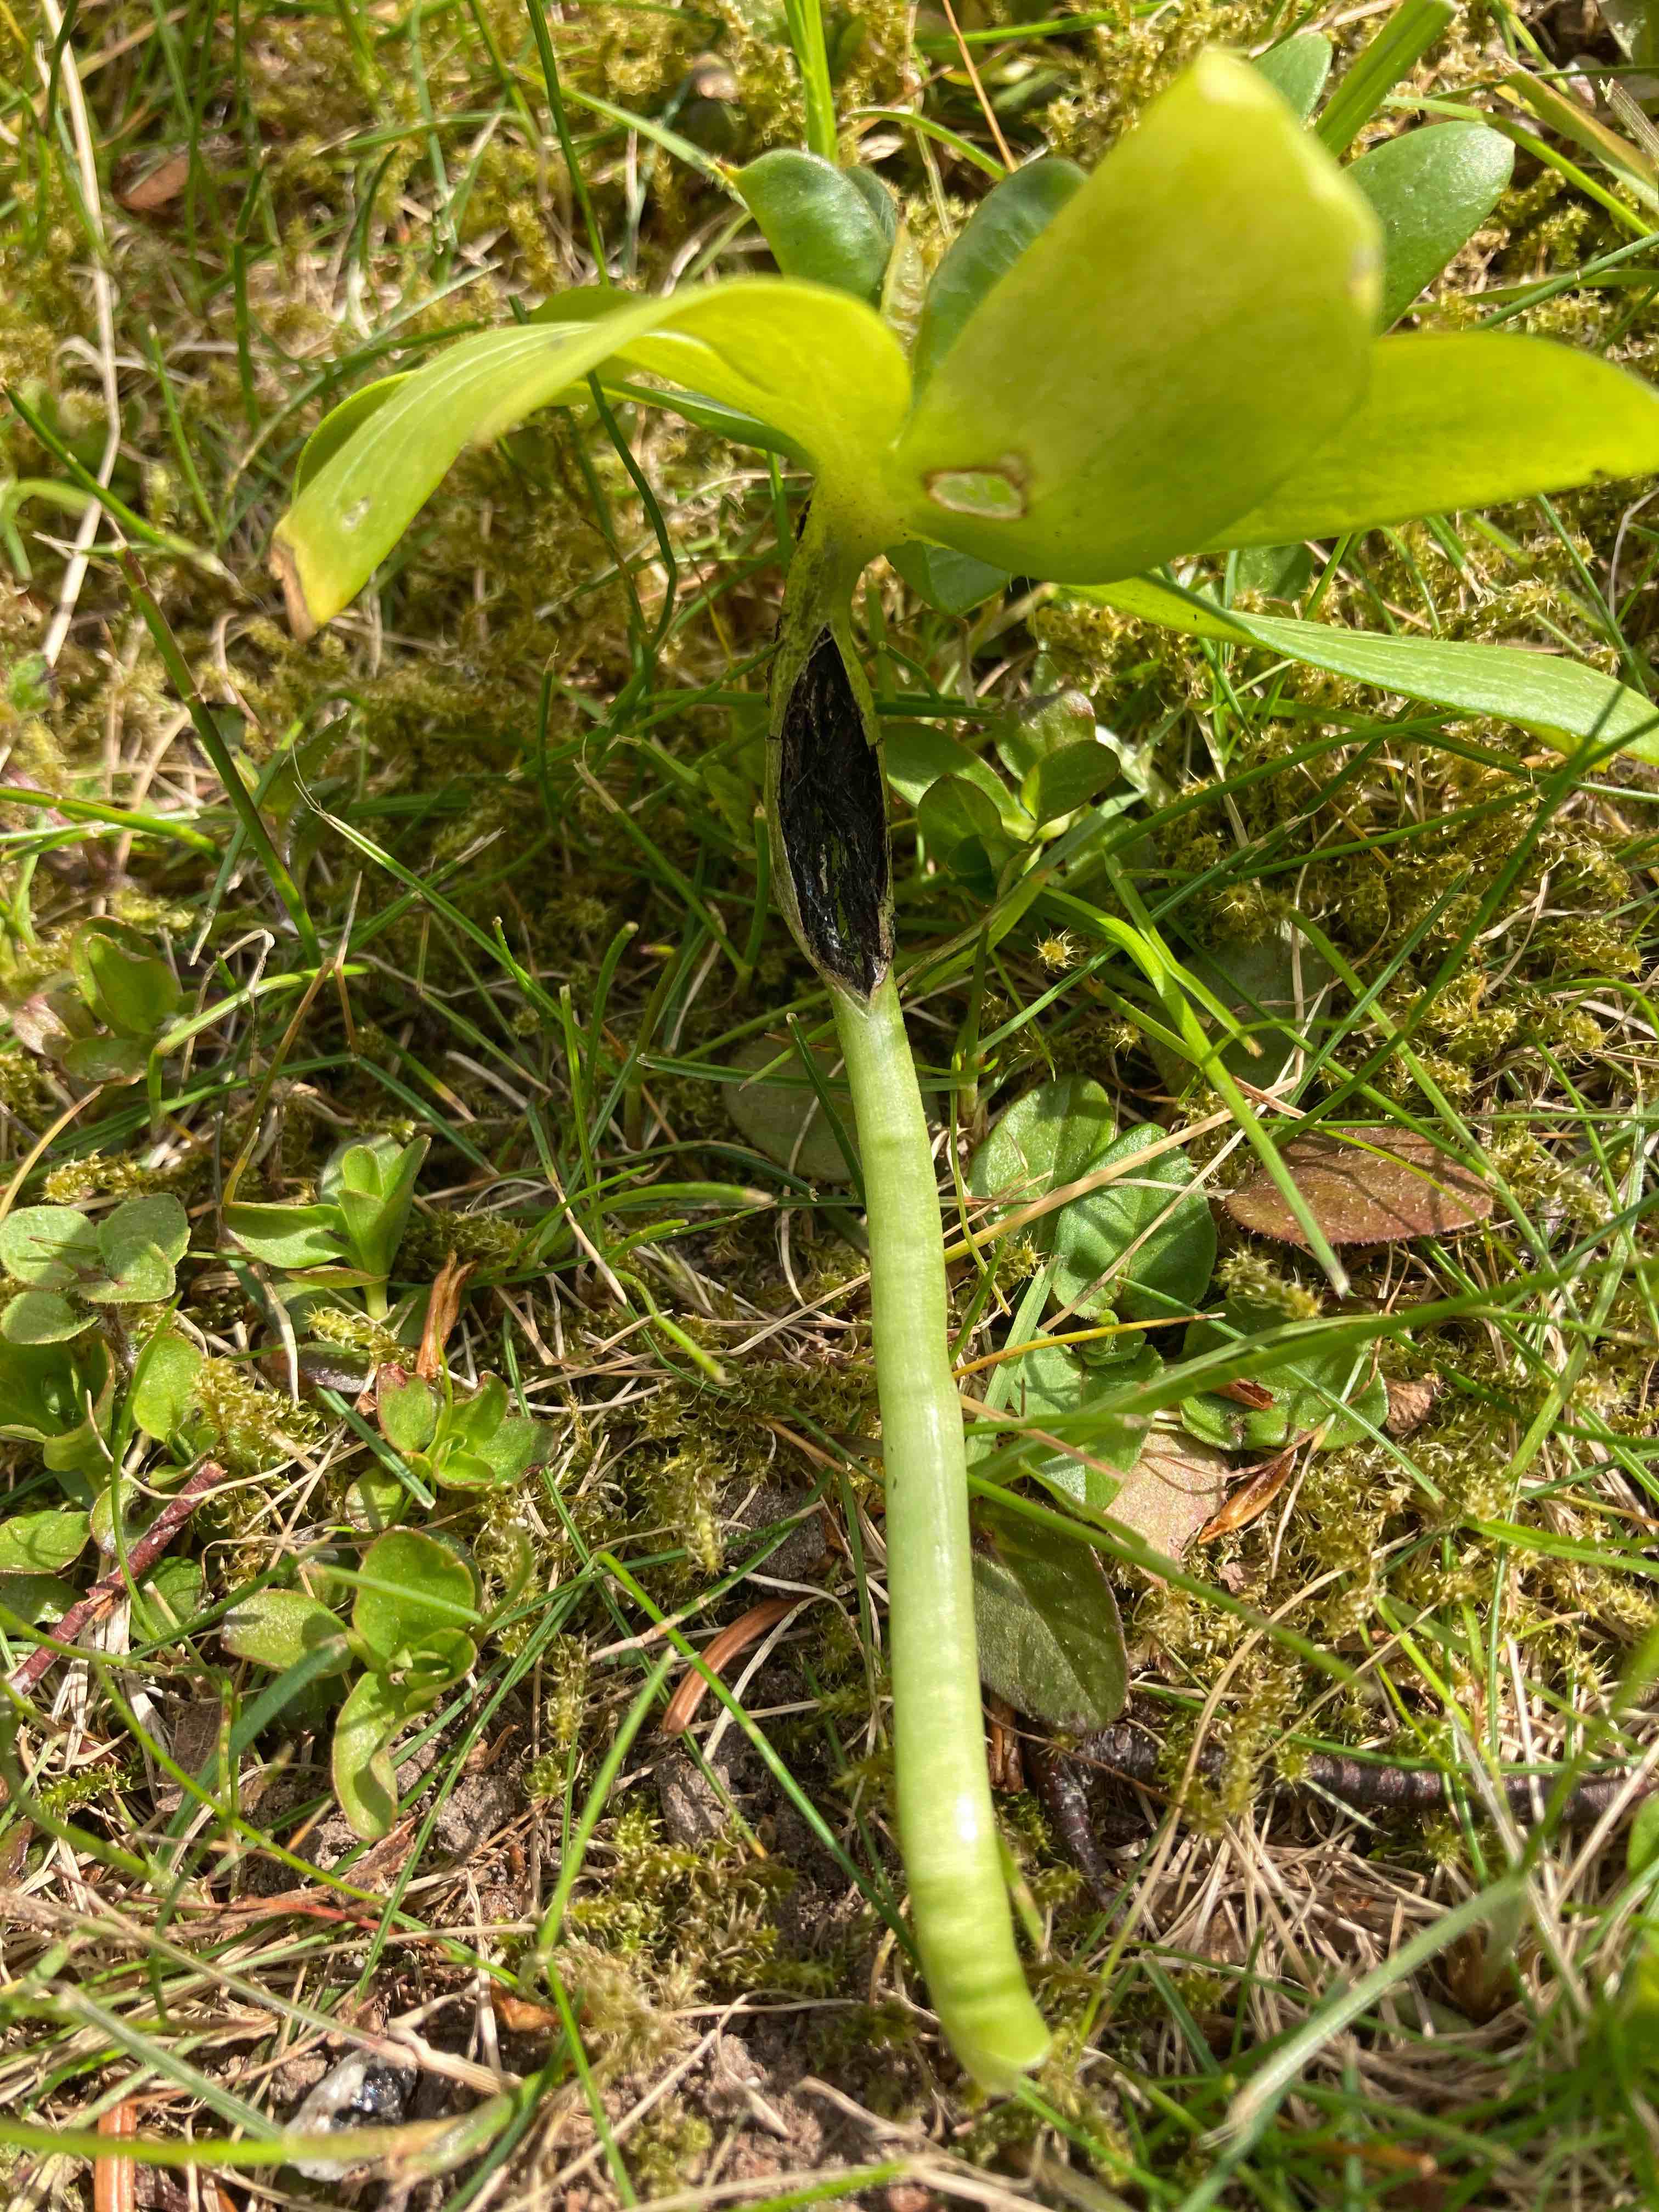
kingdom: Fungi
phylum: Basidiomycota
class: Ustilaginomycetes
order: Urocystidales
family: Urocystidaceae
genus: Urocystis
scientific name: Urocystis eranthidis
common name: erantis-brand
